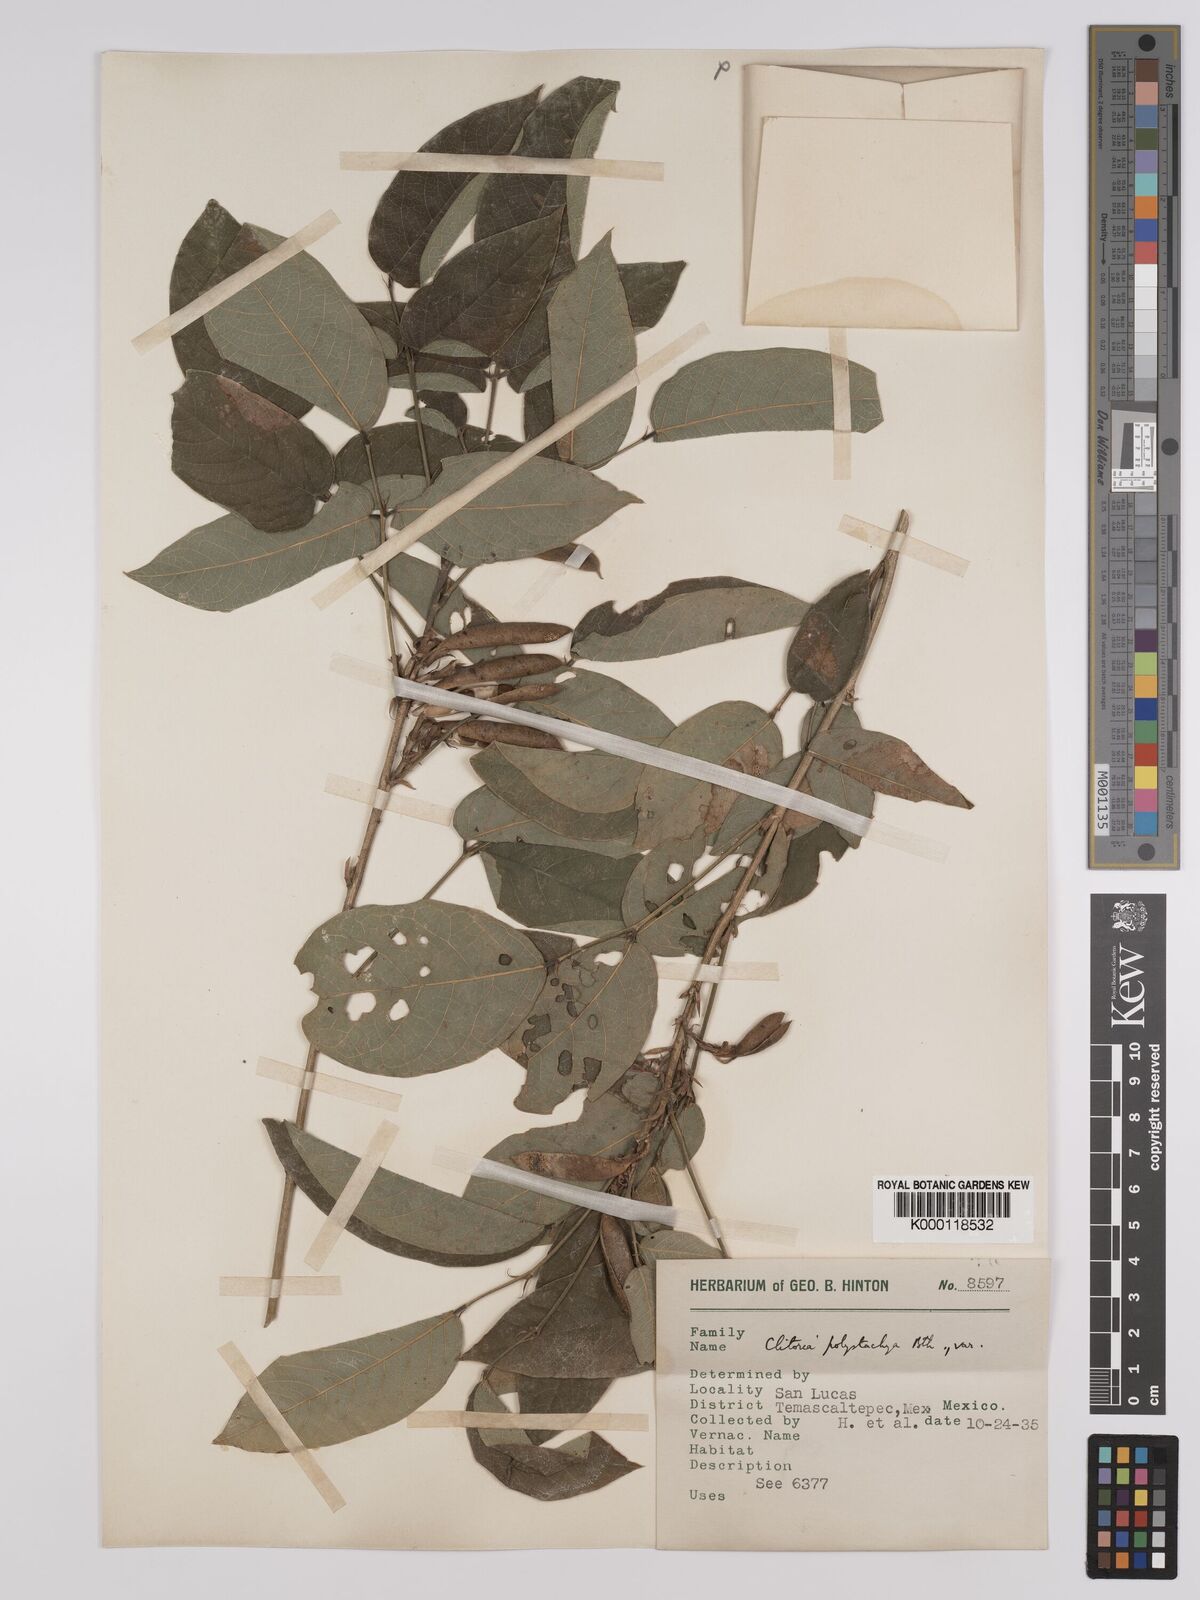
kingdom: Plantae
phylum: Tracheophyta
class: Magnoliopsida
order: Fabales
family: Fabaceae
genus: Clitoria
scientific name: Clitoria polystachya
